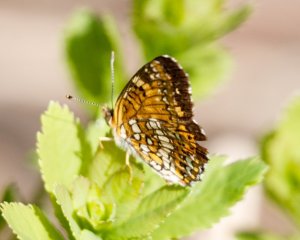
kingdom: Animalia
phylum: Arthropoda
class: Insecta
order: Lepidoptera
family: Nymphalidae
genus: Chlosyne
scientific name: Chlosyne harrisii
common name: Harris's Checkerspot
